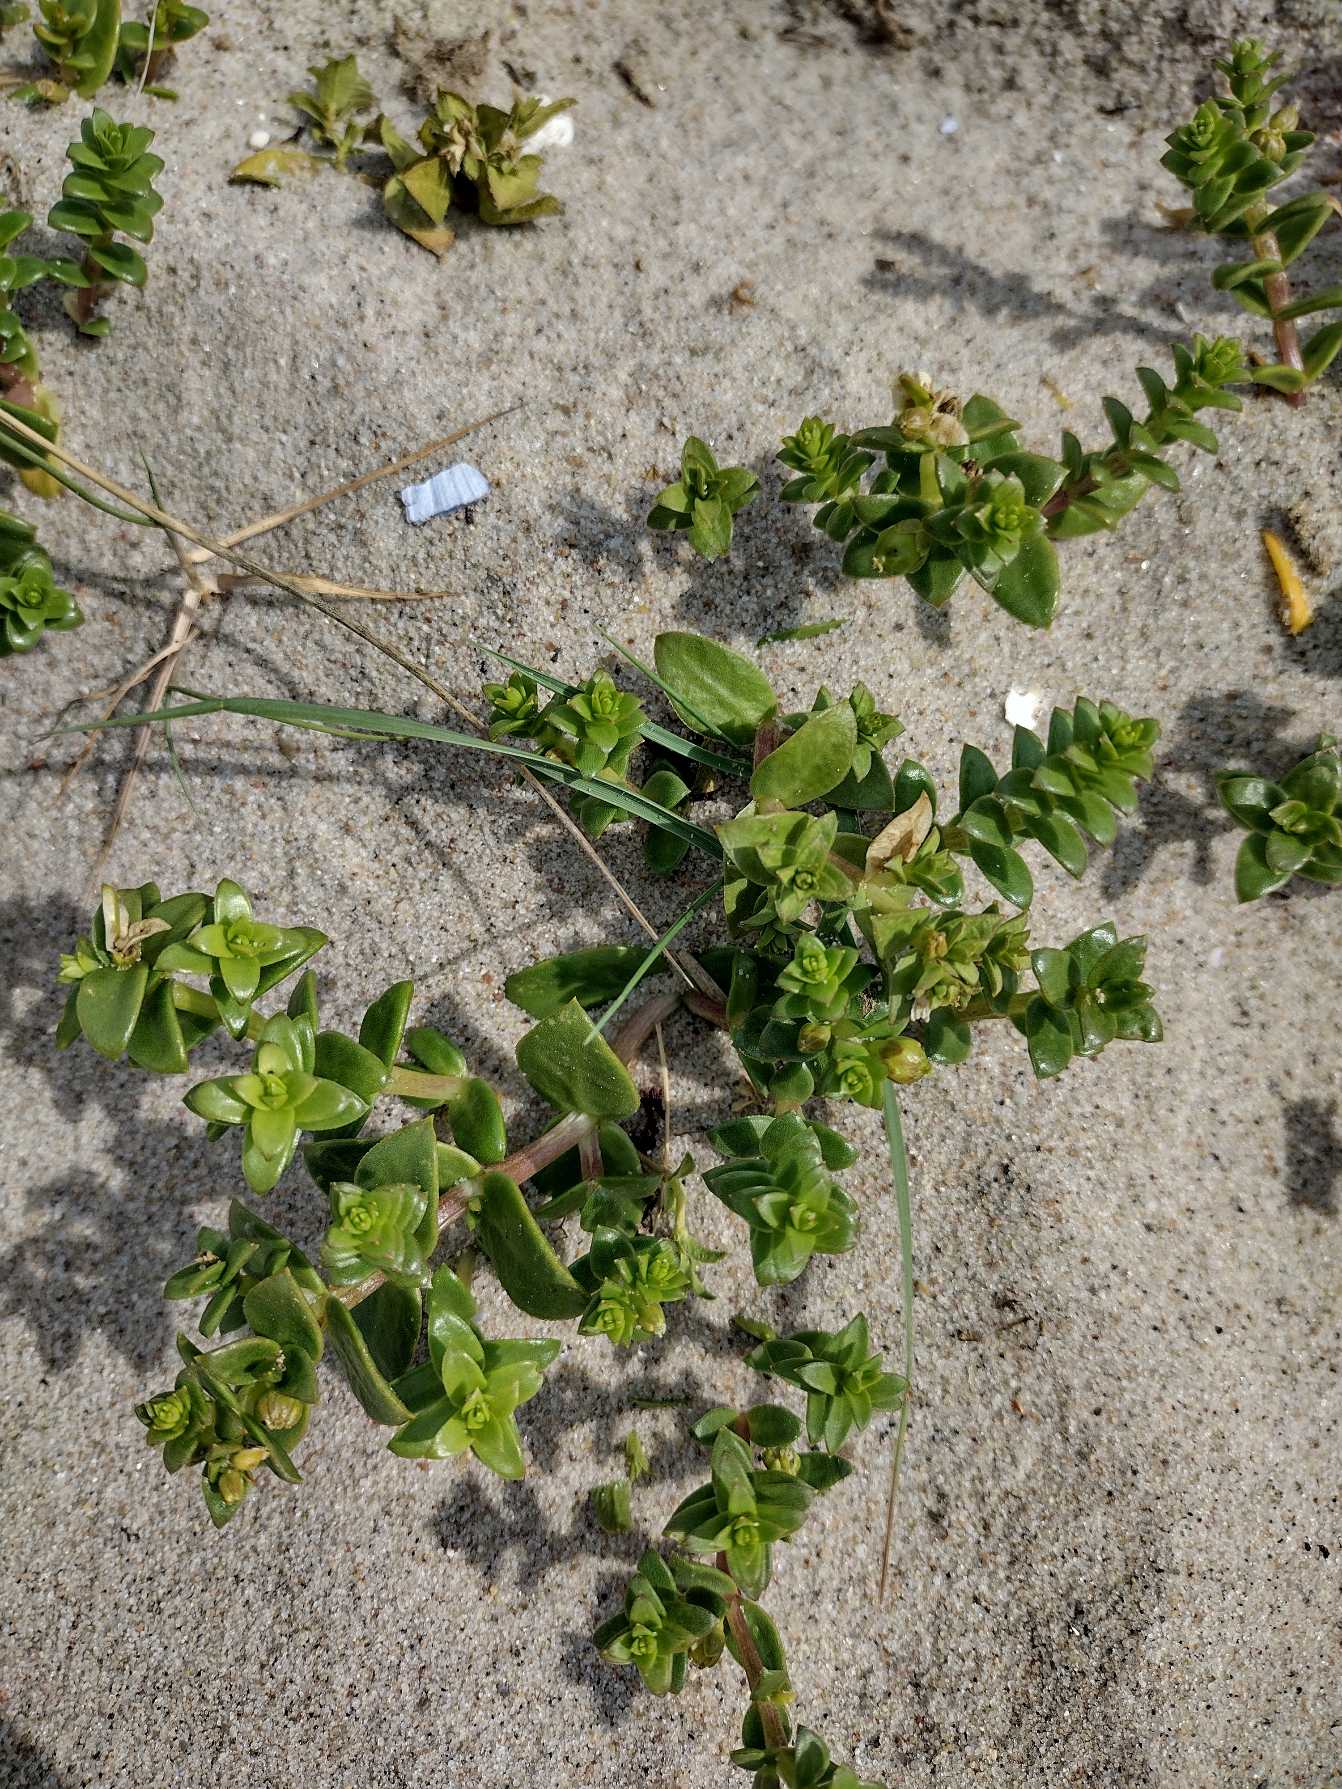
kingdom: Plantae
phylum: Tracheophyta
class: Magnoliopsida
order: Caryophyllales
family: Caryophyllaceae
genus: Honckenya
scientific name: Honckenya peploides
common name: Strandarve
